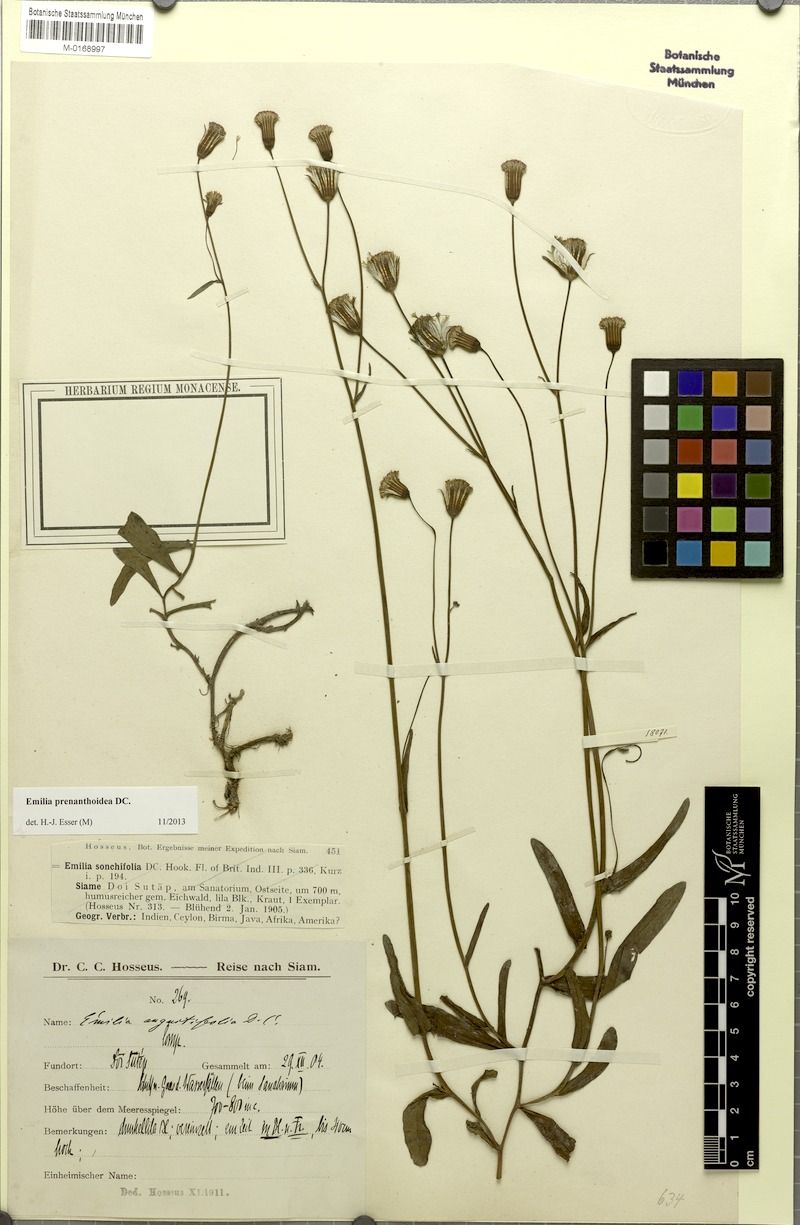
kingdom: Plantae
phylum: Tracheophyta
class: Magnoliopsida
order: Asterales
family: Asteraceae
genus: Emilia
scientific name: Emilia prenanthoidea
